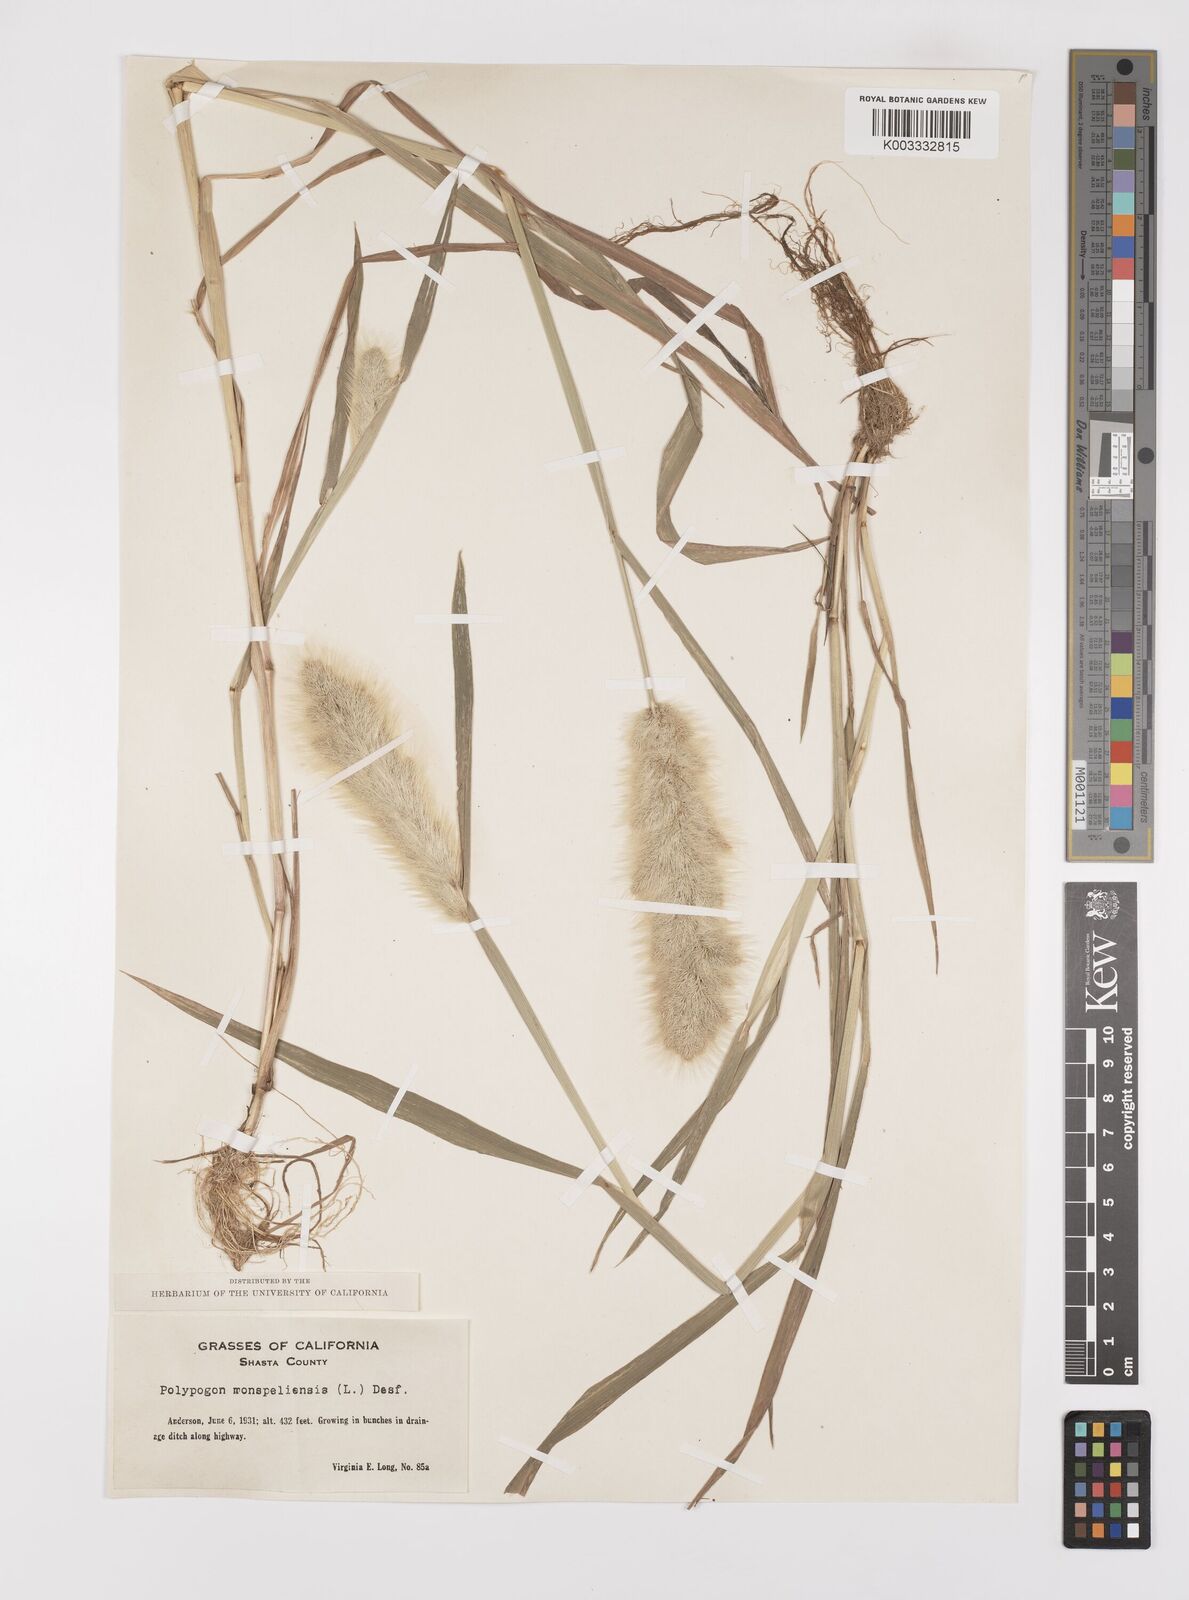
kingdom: Plantae
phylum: Tracheophyta
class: Liliopsida
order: Poales
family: Poaceae
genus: Polypogon
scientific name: Polypogon monspeliensis
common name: Annual rabbitsfoot grass
